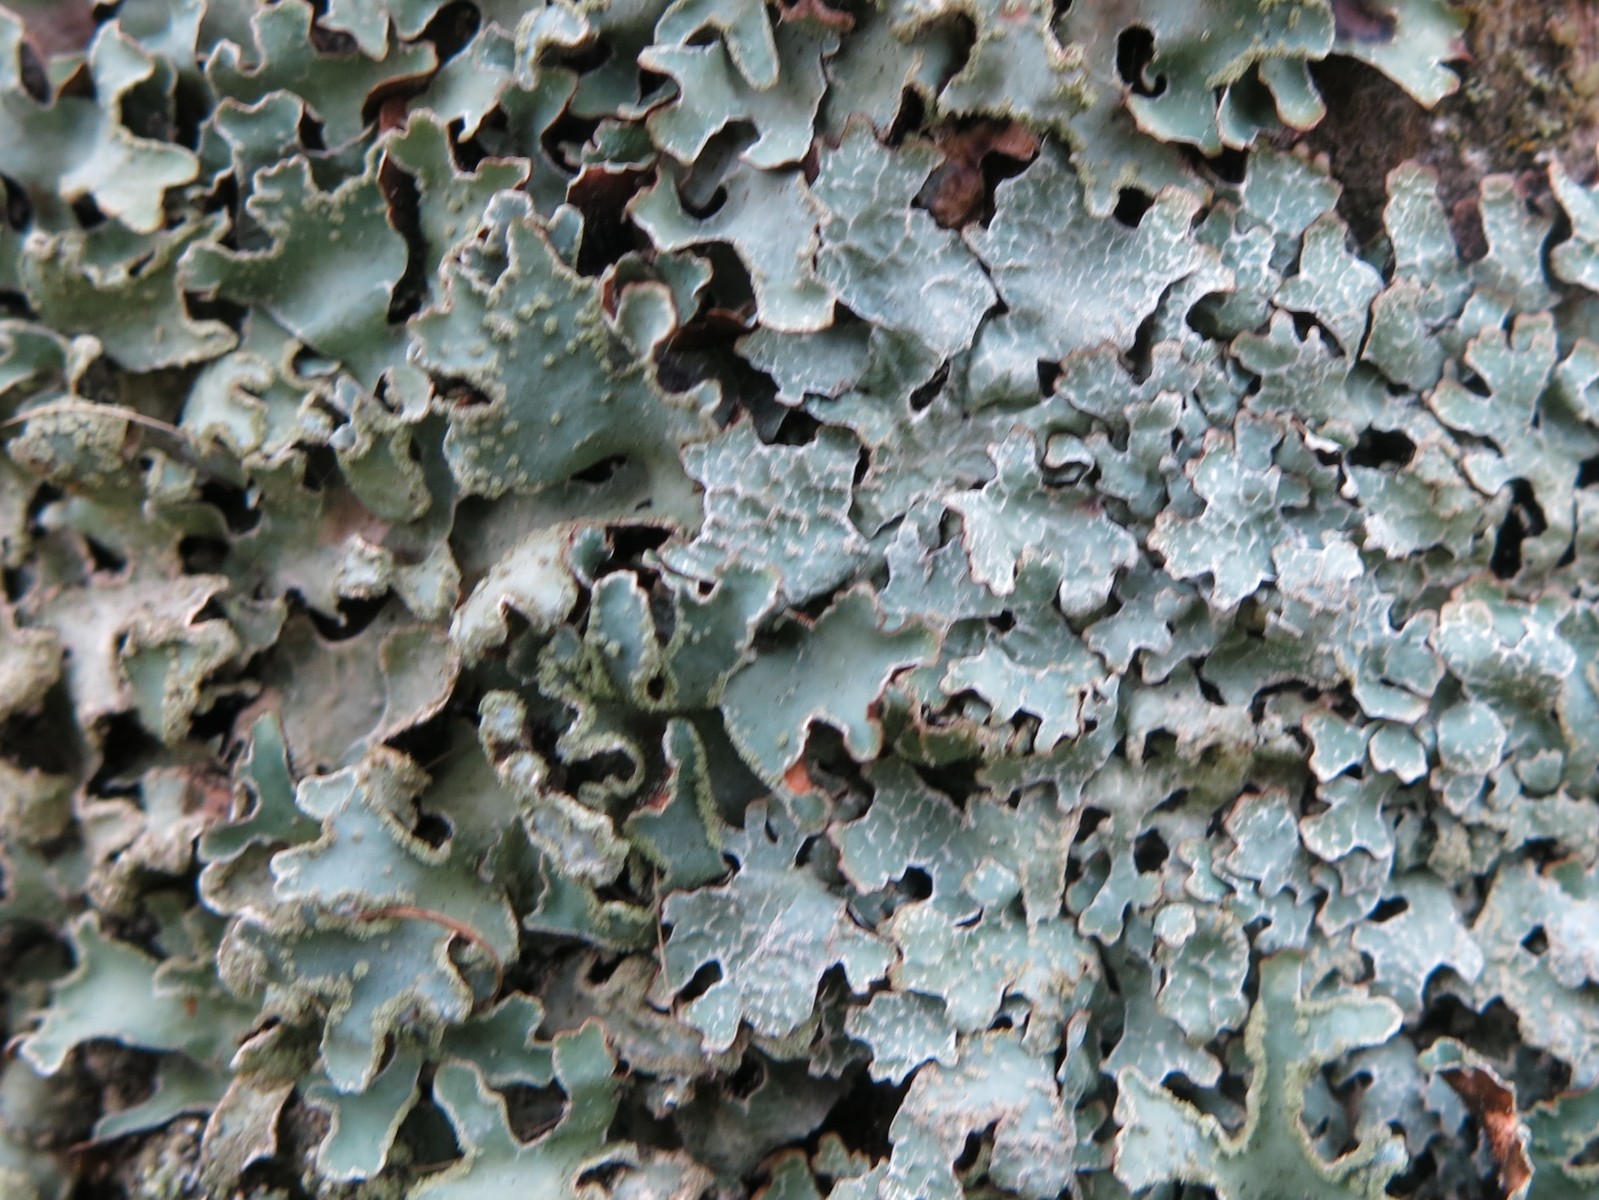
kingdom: Fungi
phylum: Ascomycota
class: Lecanoromycetes
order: Lecanorales
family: Parmeliaceae
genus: Parmelia
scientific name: Parmelia sulcata
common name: rynket skållav
